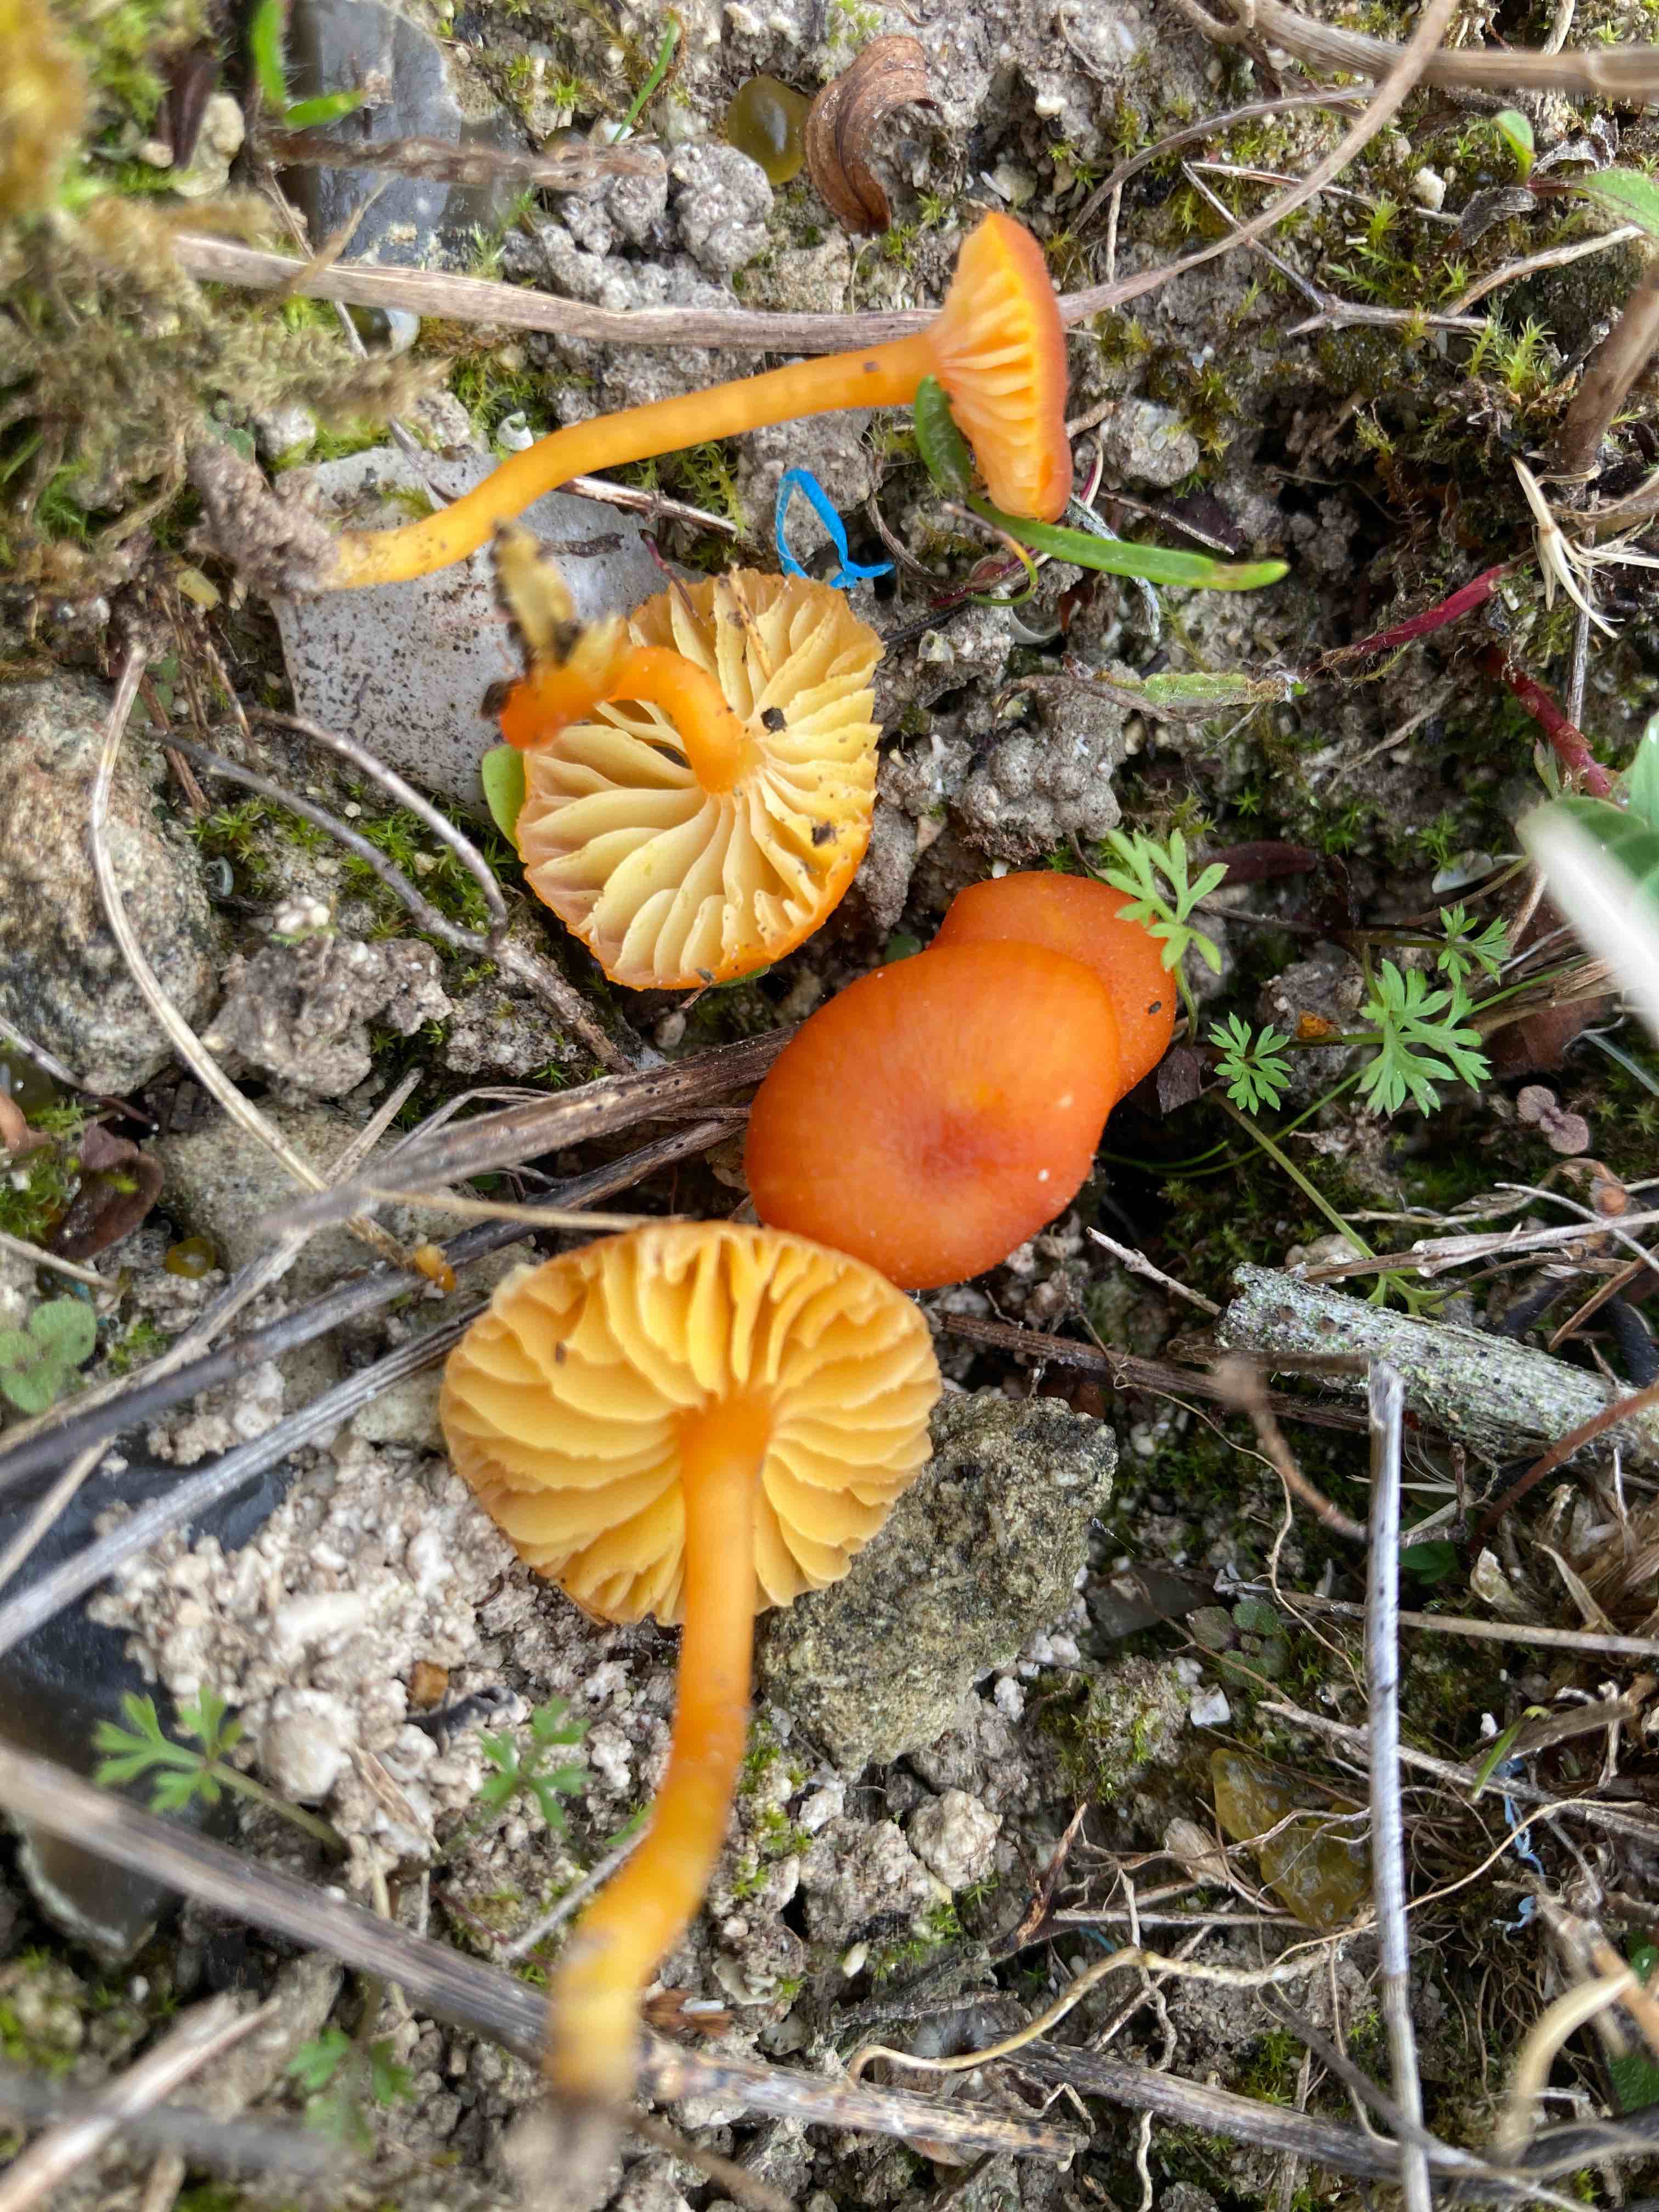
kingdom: Fungi
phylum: Basidiomycota
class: Agaricomycetes
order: Agaricales
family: Hygrophoraceae
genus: Hygrocybe
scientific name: Hygrocybe calciphila
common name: kalk-vokshat
